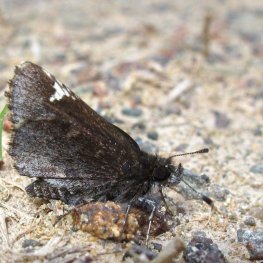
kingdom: Animalia
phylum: Arthropoda
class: Insecta
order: Lepidoptera
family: Hesperiidae
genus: Mastor
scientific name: Mastor vialis
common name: Common Roadside-Skipper
